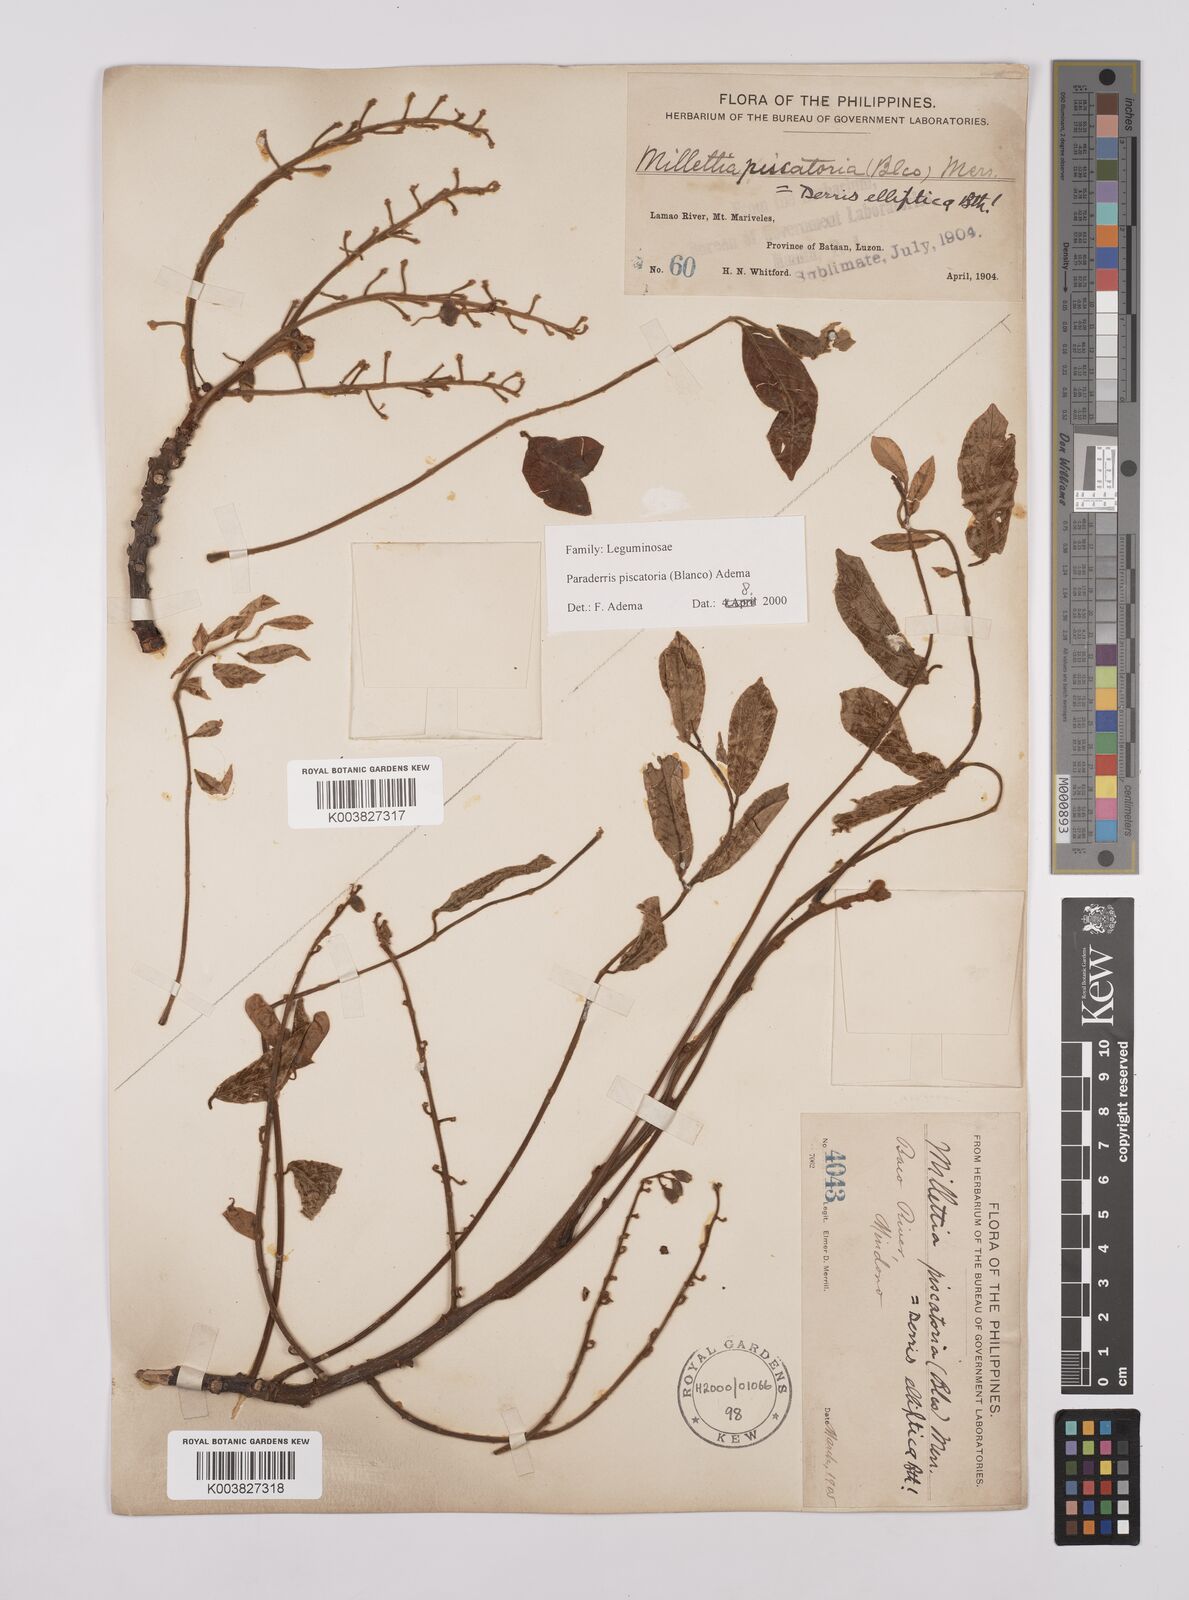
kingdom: Plantae
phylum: Tracheophyta
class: Magnoliopsida
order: Fabales
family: Fabaceae
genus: Derris
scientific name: Derris piscatoria
